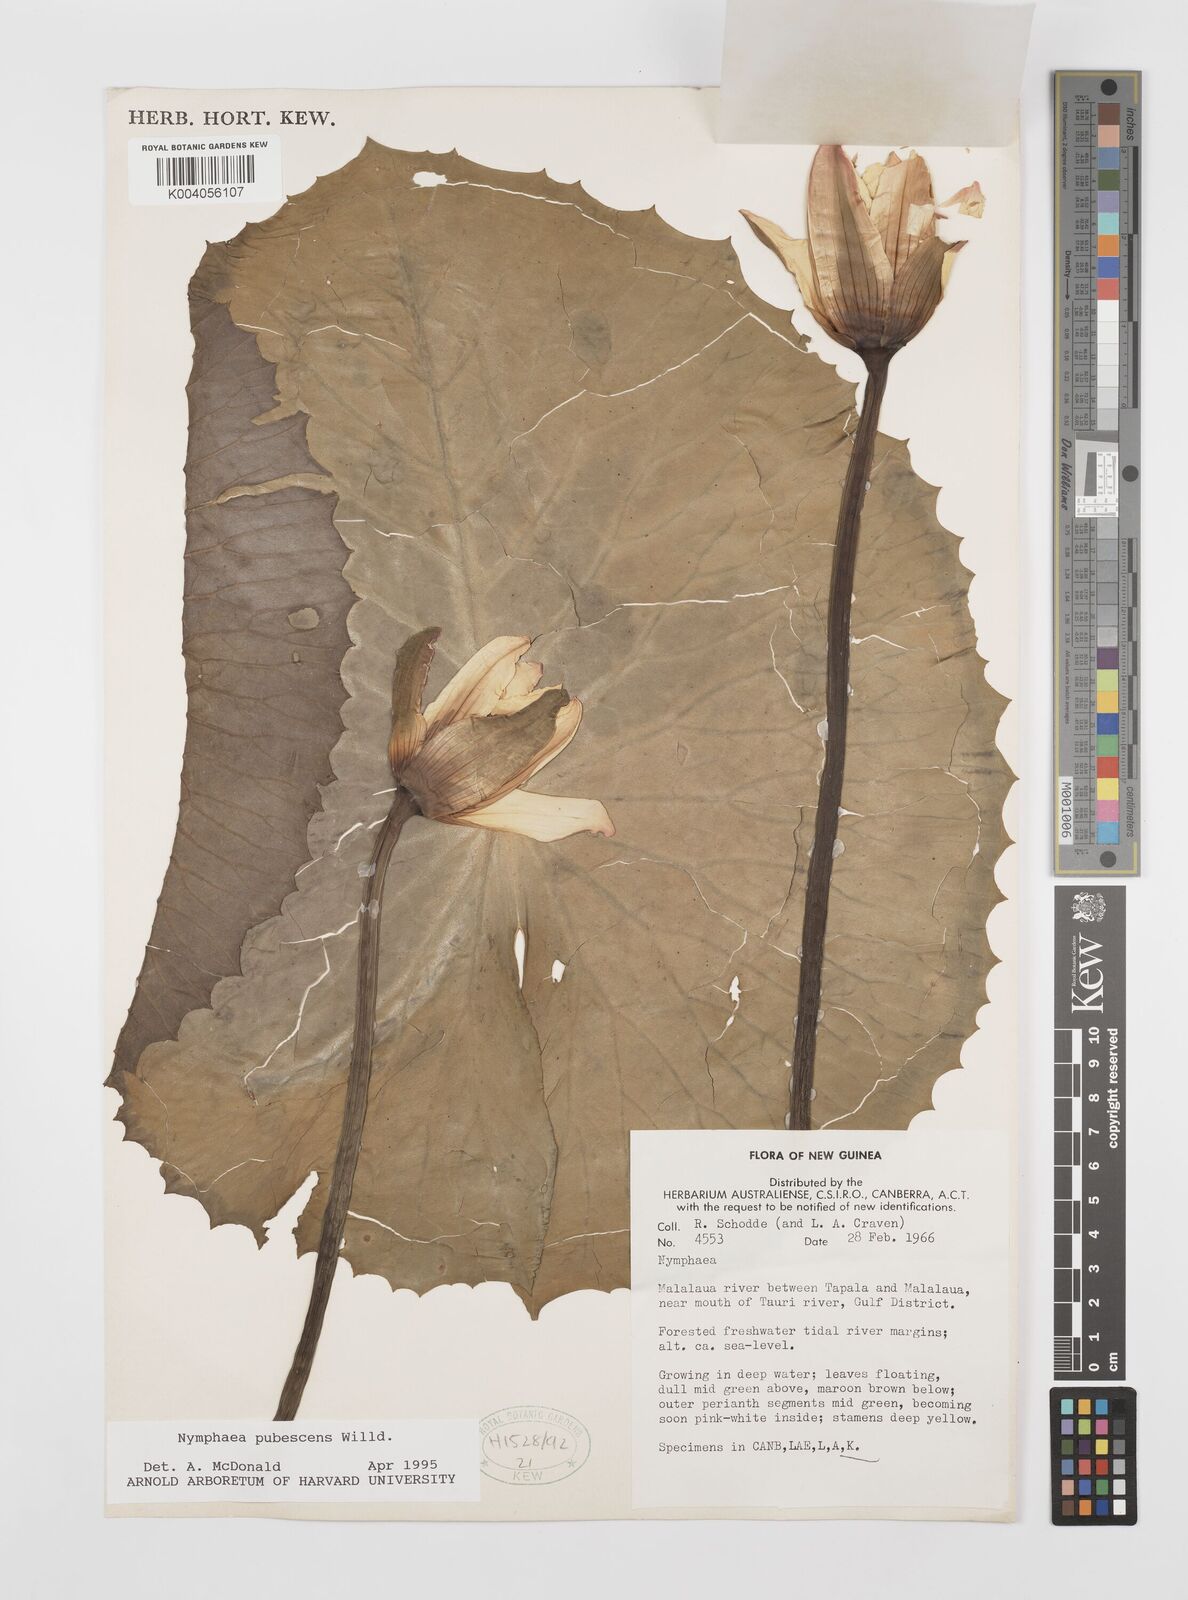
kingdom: Plantae
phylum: Tracheophyta
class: Magnoliopsida
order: Nymphaeales
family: Nymphaeaceae
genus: Nymphaea
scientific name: Nymphaea pubescens
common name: Hairy water lily
